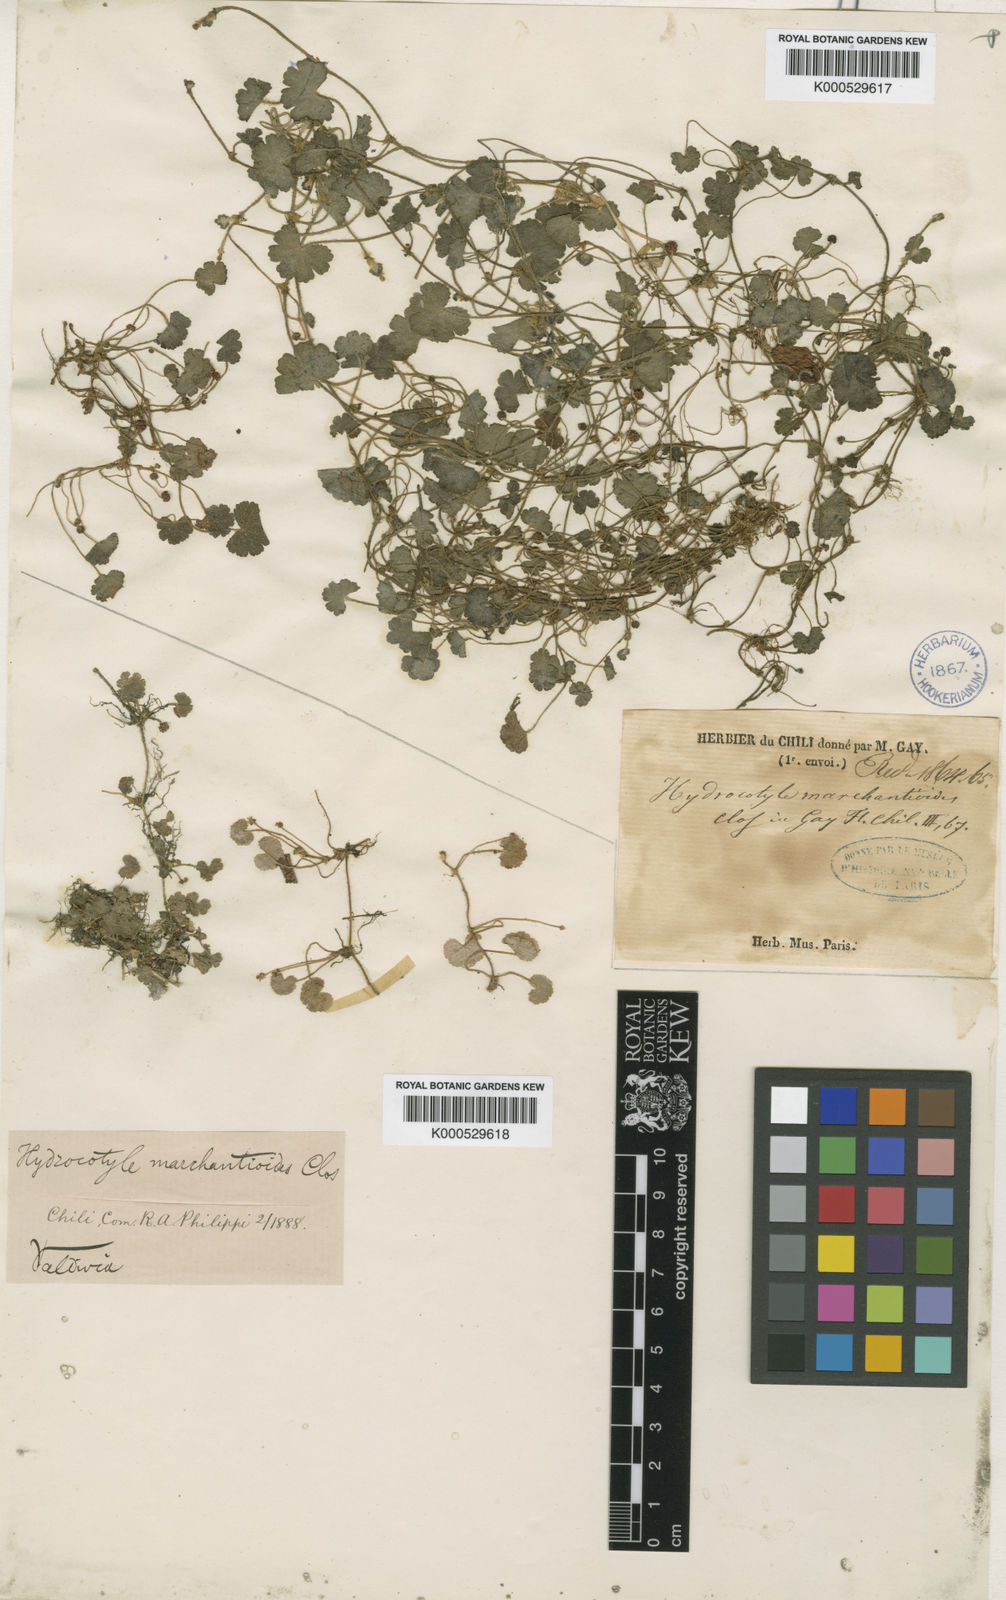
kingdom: Plantae
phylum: Tracheophyta
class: Magnoliopsida
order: Apiales
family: Araliaceae
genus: Hydrocotyle
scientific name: Hydrocotyle indecora
